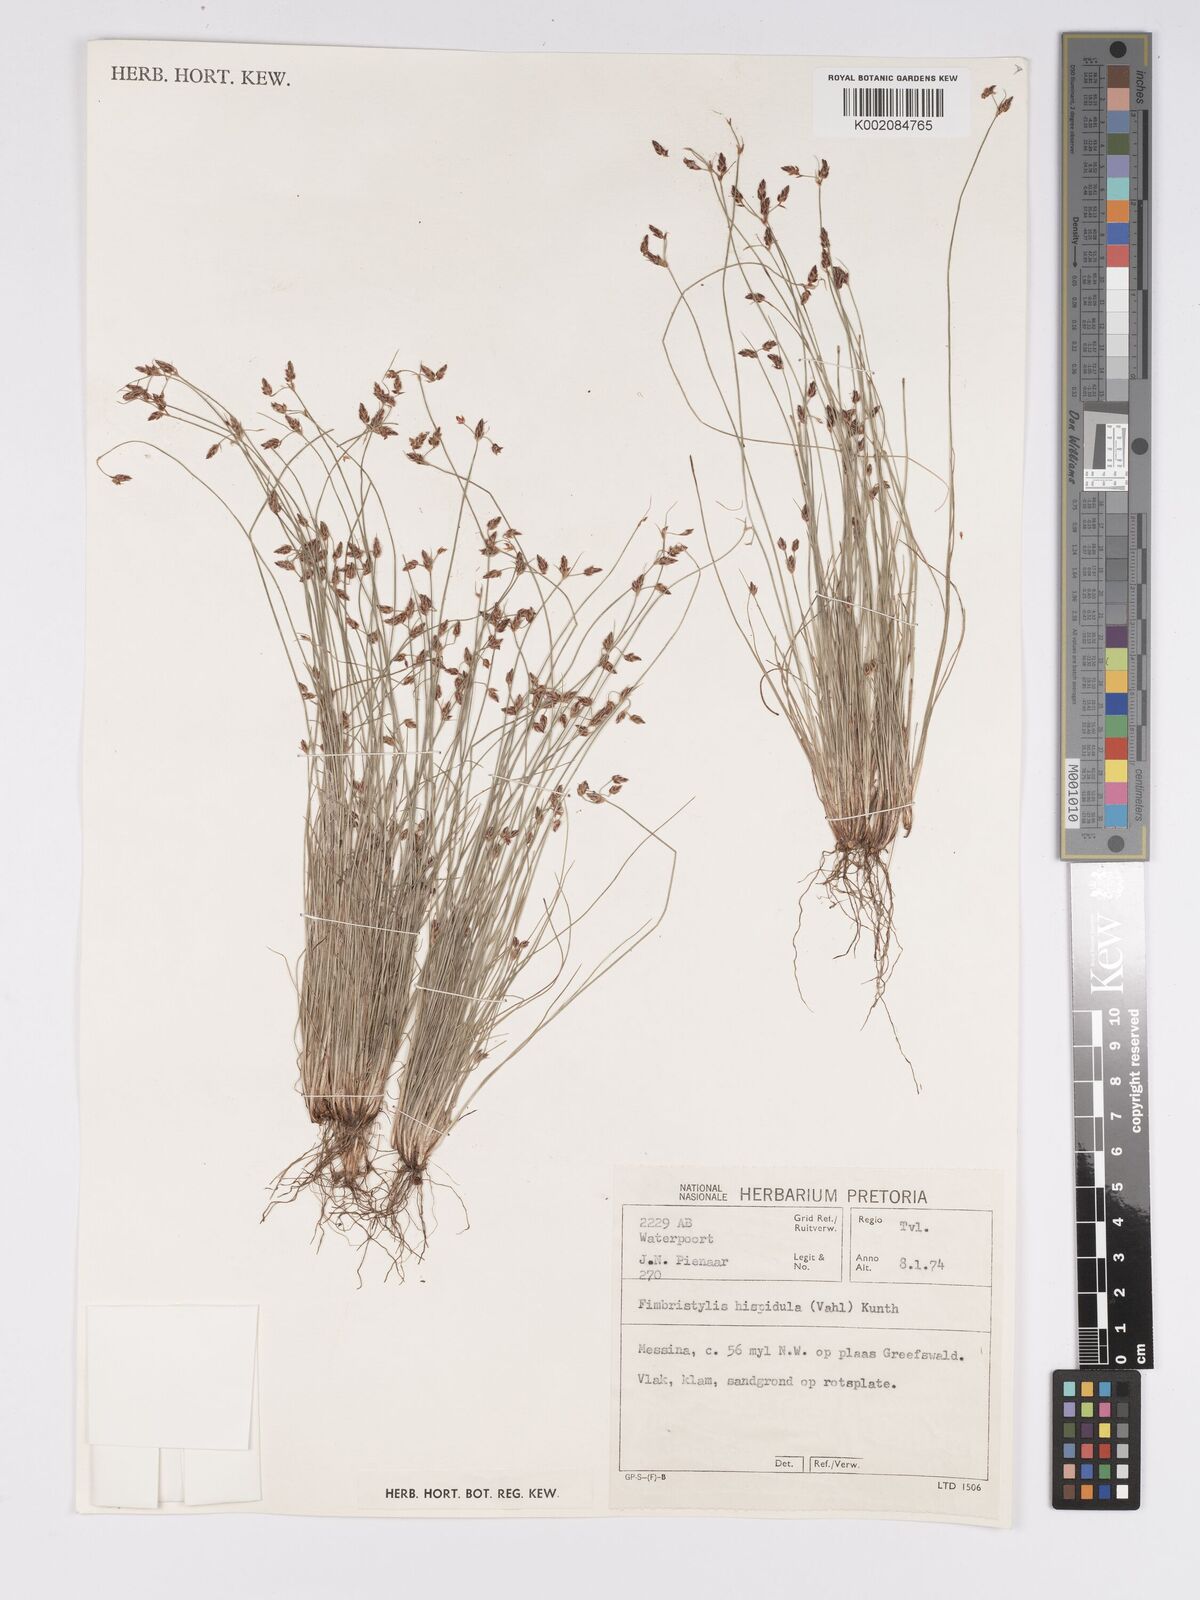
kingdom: Plantae
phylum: Tracheophyta
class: Liliopsida
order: Poales
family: Cyperaceae
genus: Bulbostylis
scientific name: Bulbostylis hispidula
